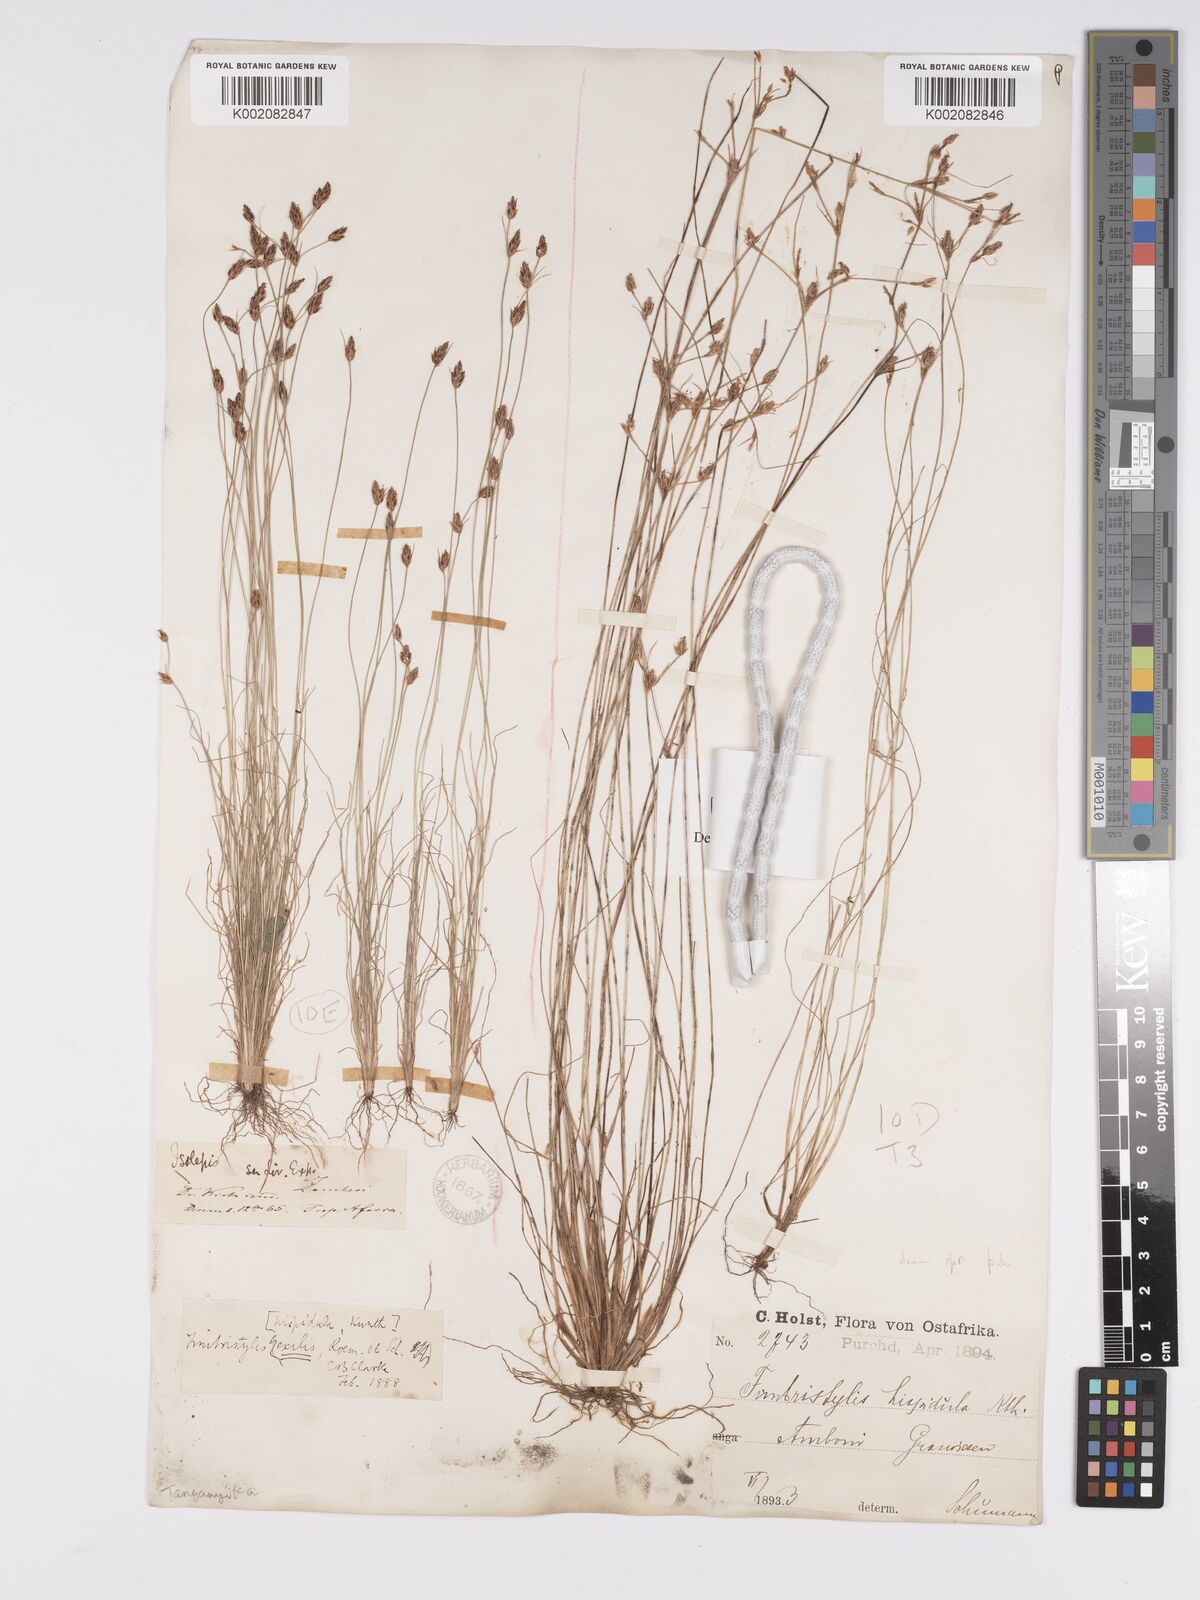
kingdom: Plantae
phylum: Tracheophyta
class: Liliopsida
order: Poales
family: Cyperaceae
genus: Bulbostylis
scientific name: Bulbostylis hispidula
